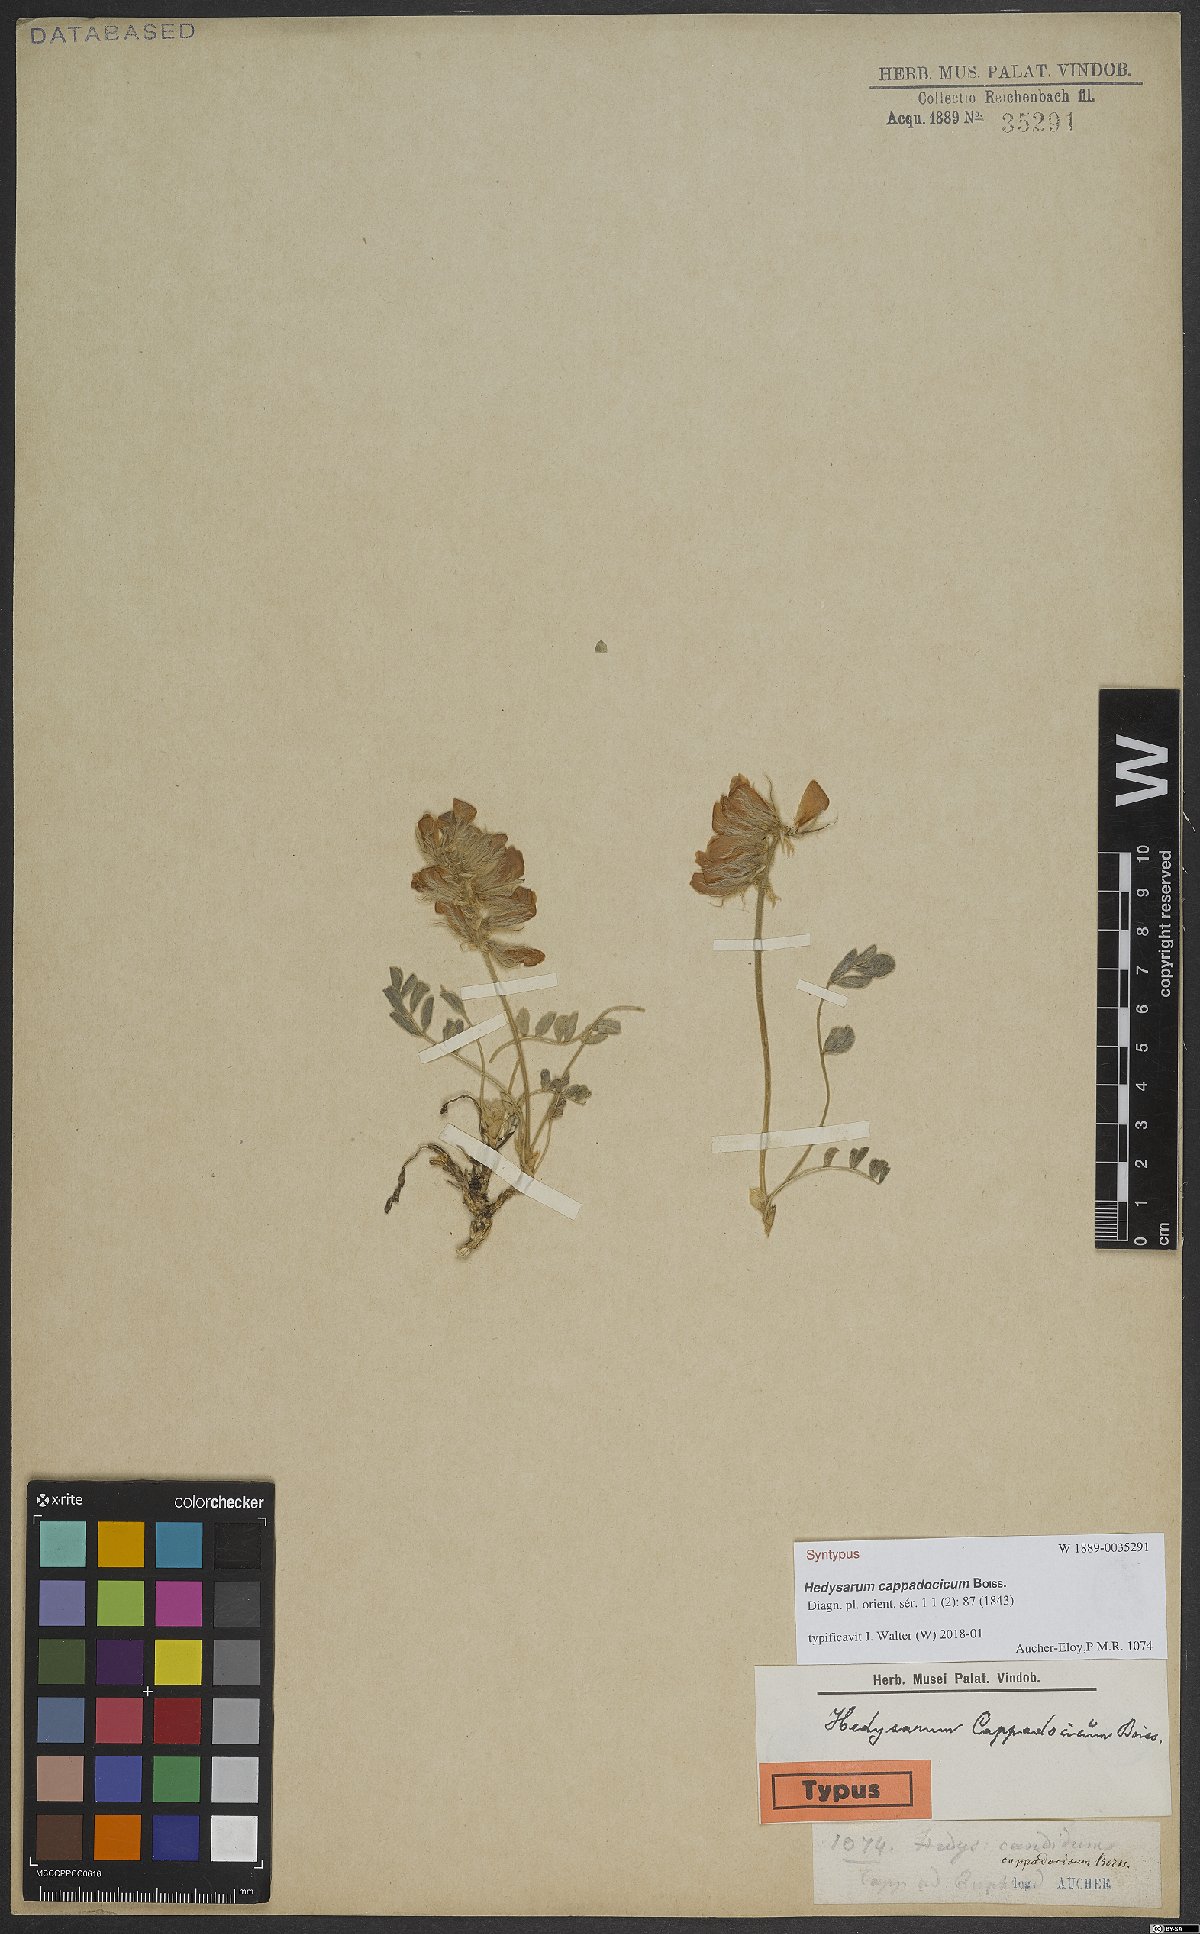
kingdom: Plantae
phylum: Tracheophyta
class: Magnoliopsida
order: Fabales
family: Fabaceae
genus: Hedysarum
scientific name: Hedysarum cappadocicum
